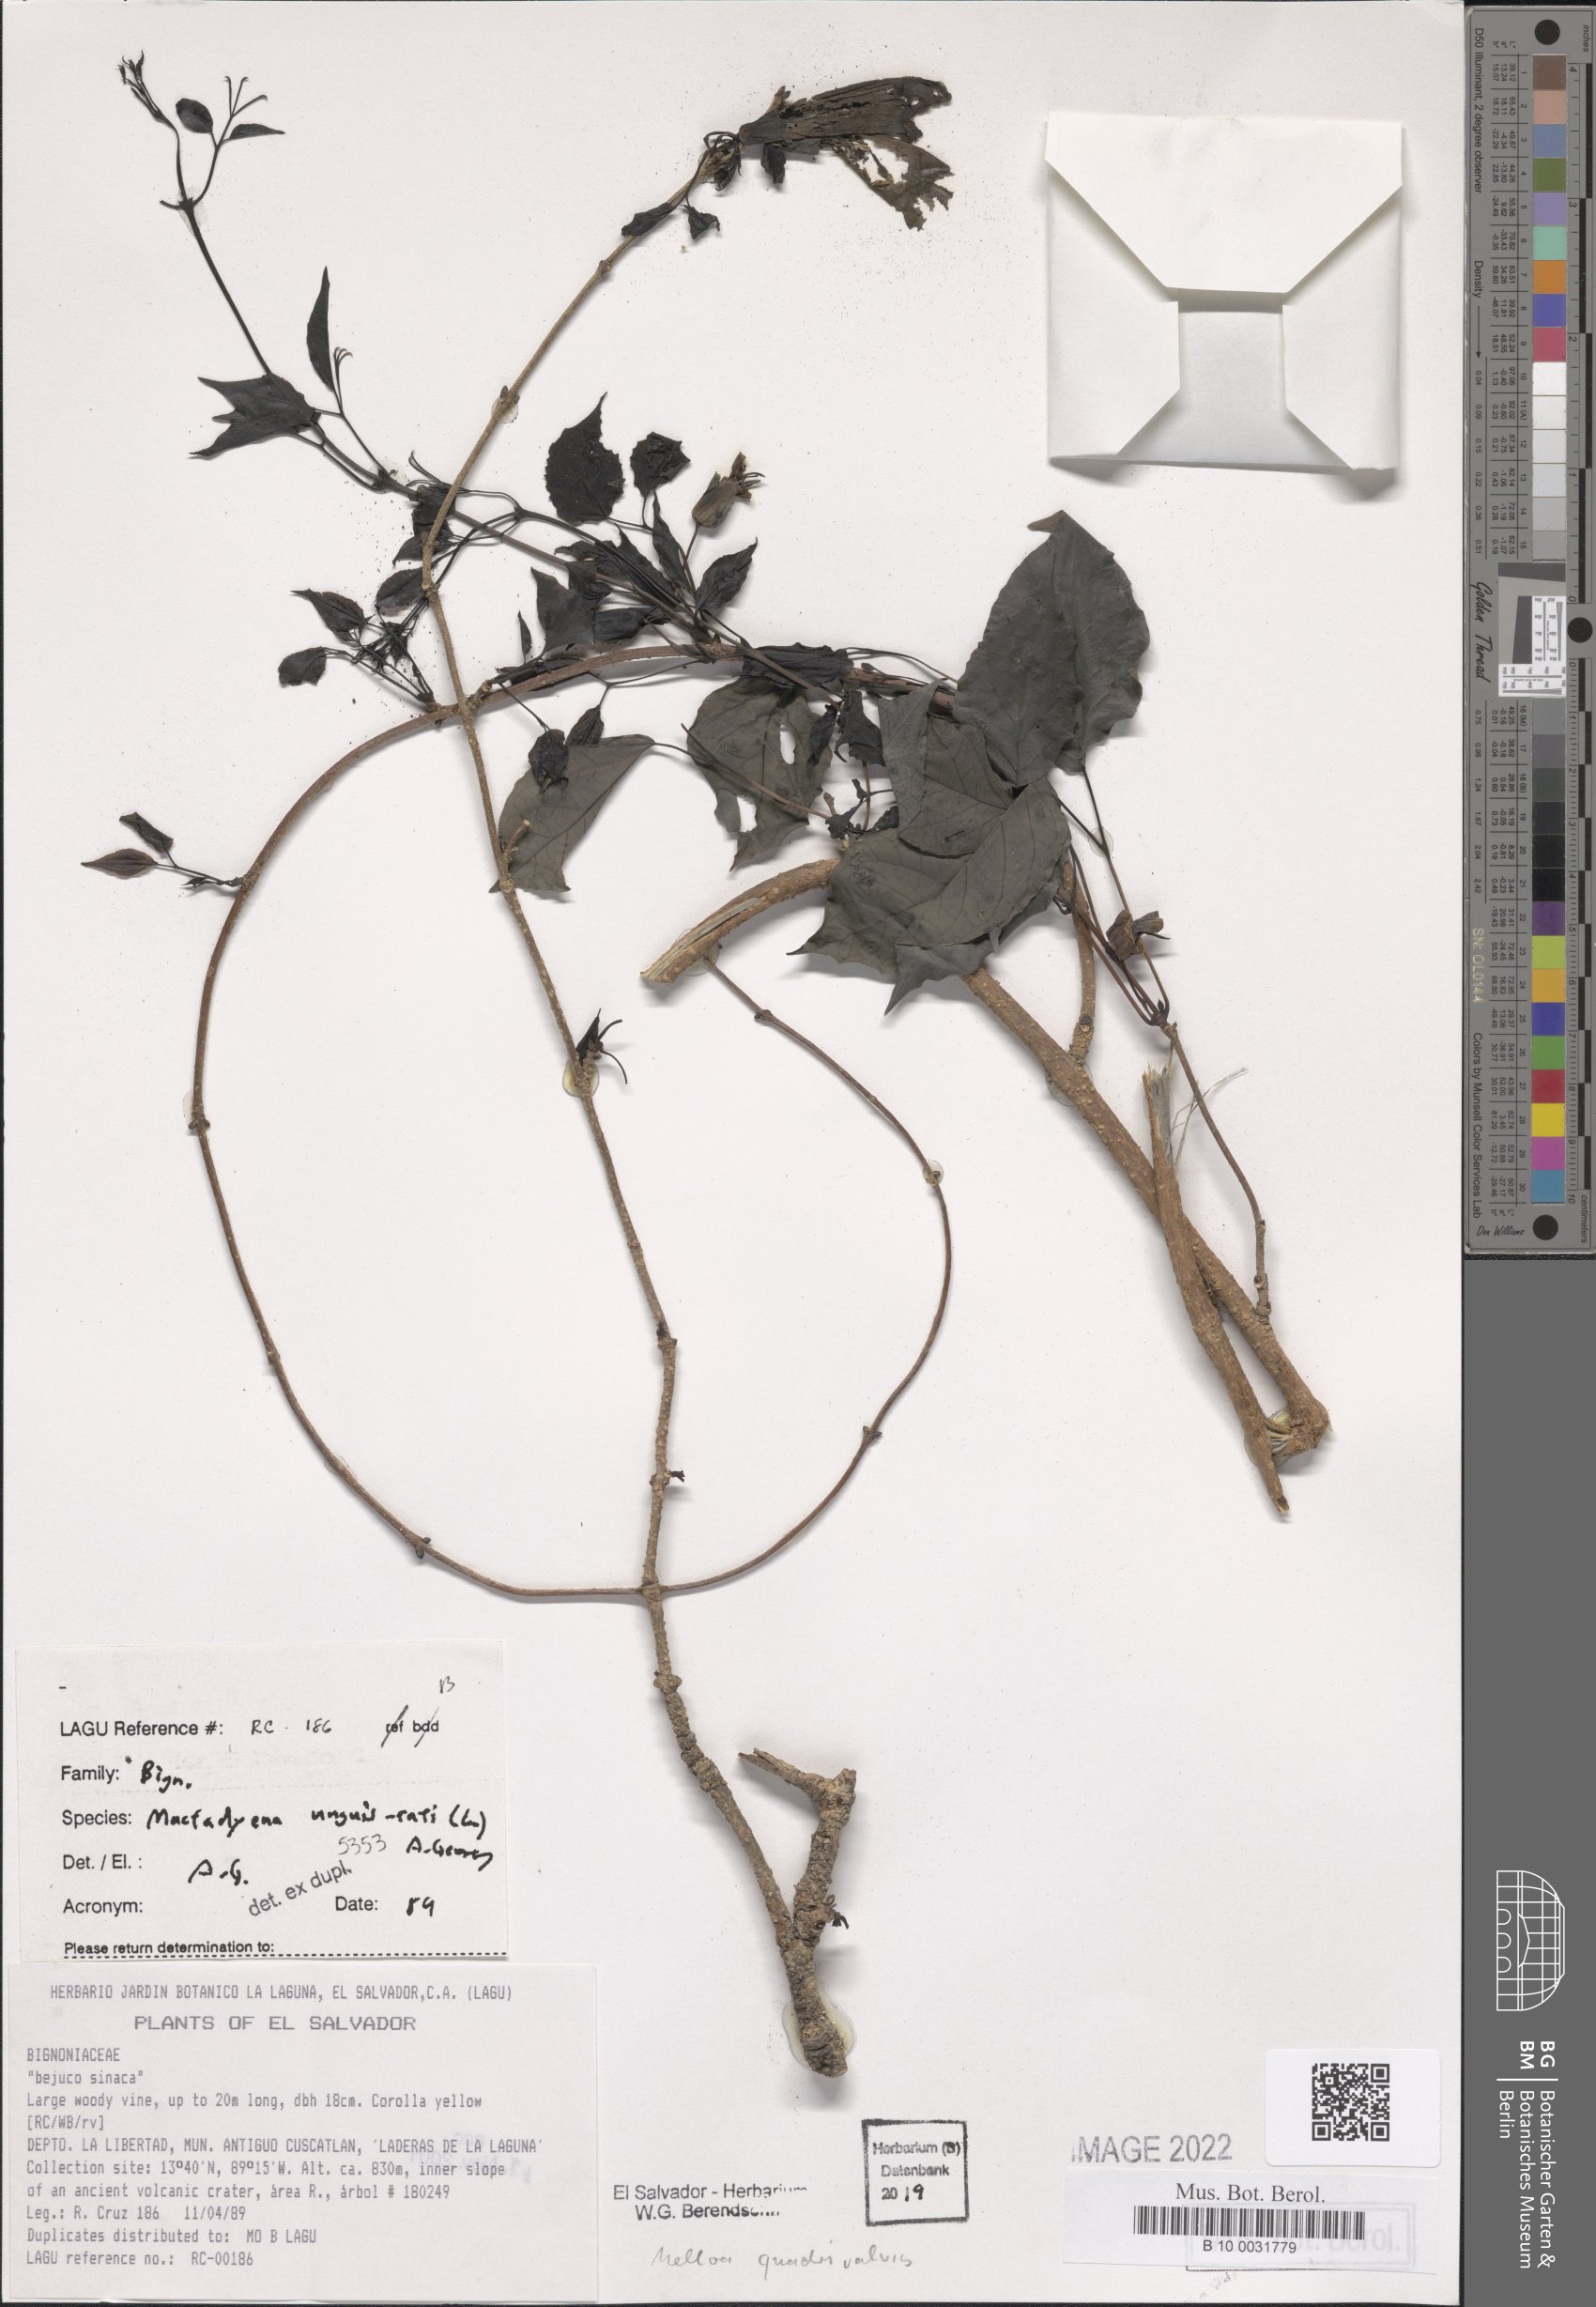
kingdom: Plantae
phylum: Tracheophyta
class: Magnoliopsida
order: Lamiales
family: Bignoniaceae
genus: Dolichandra
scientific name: Dolichandra unguis-cati
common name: Catclaw vine
